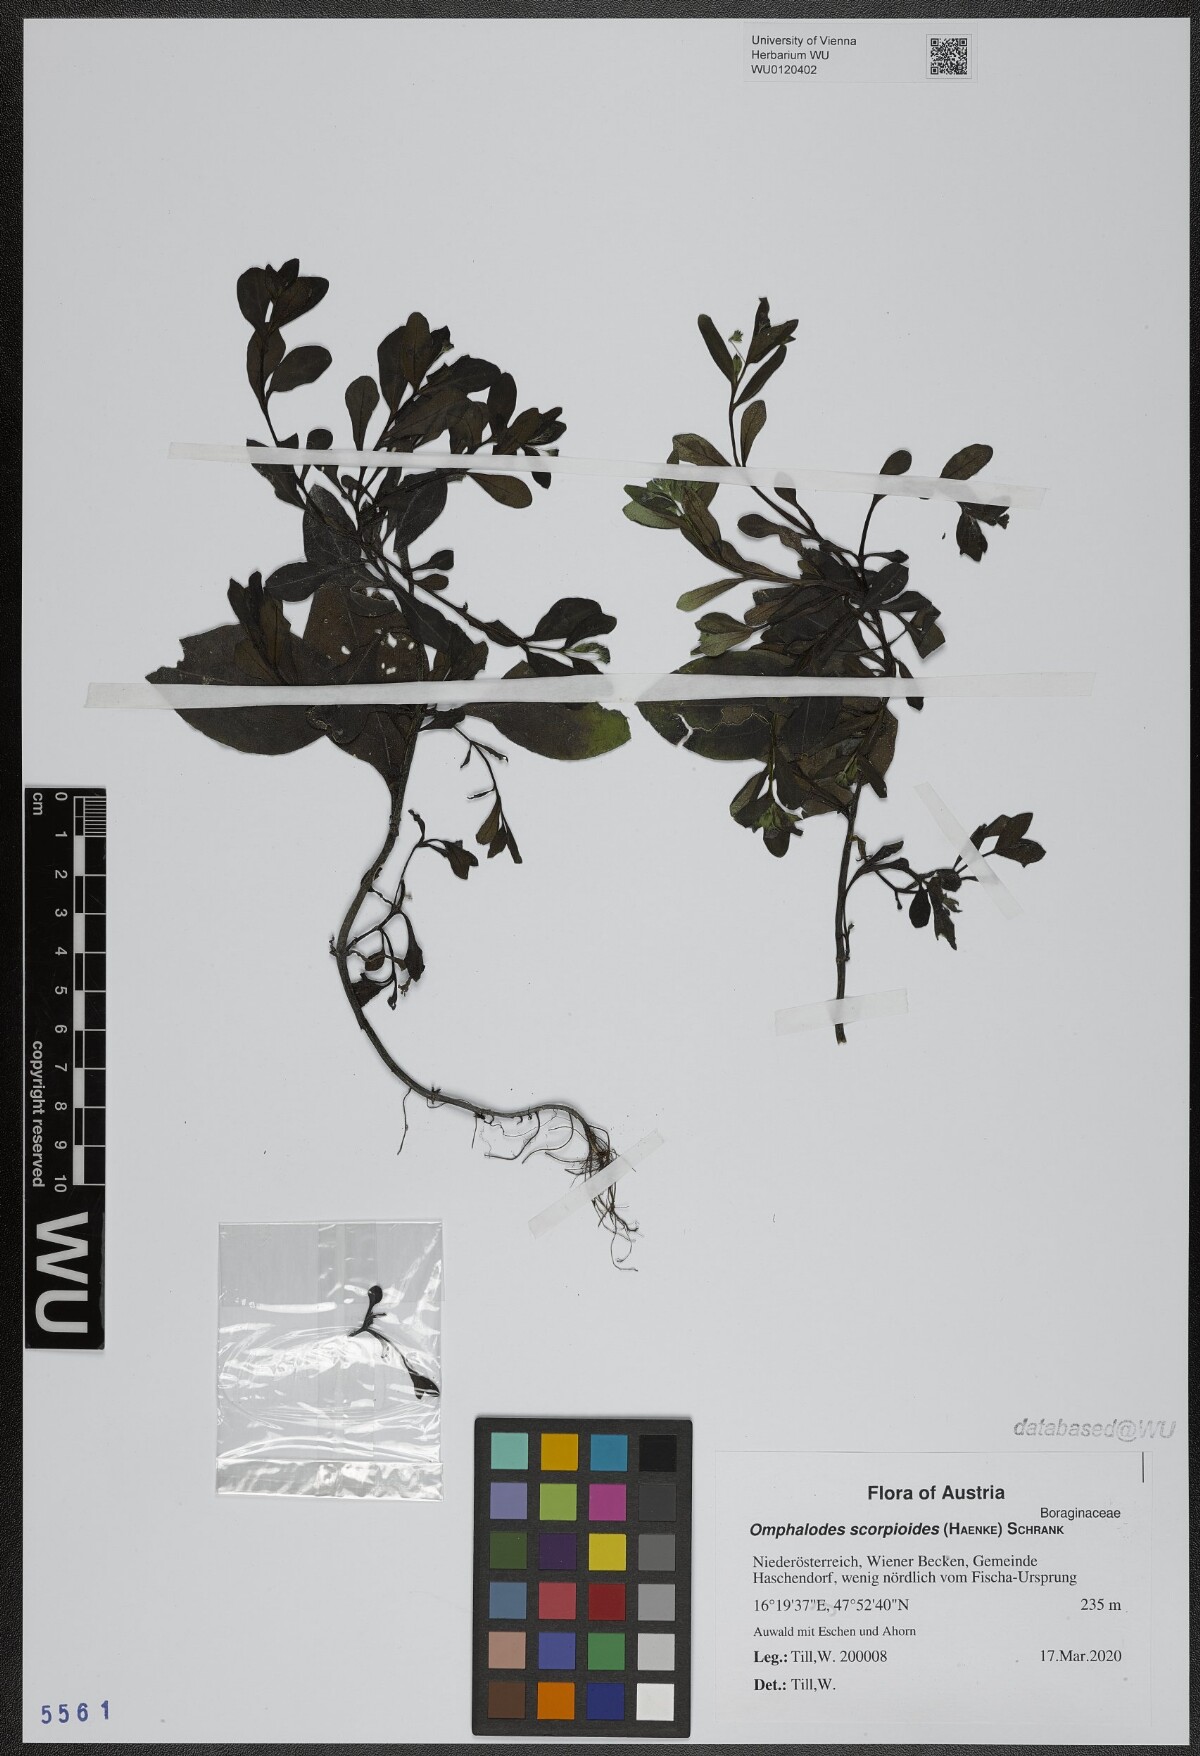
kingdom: Plantae
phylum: Tracheophyta
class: Magnoliopsida
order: Boraginales
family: Boraginaceae
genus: Memoremea
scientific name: Memoremea scorpioides
